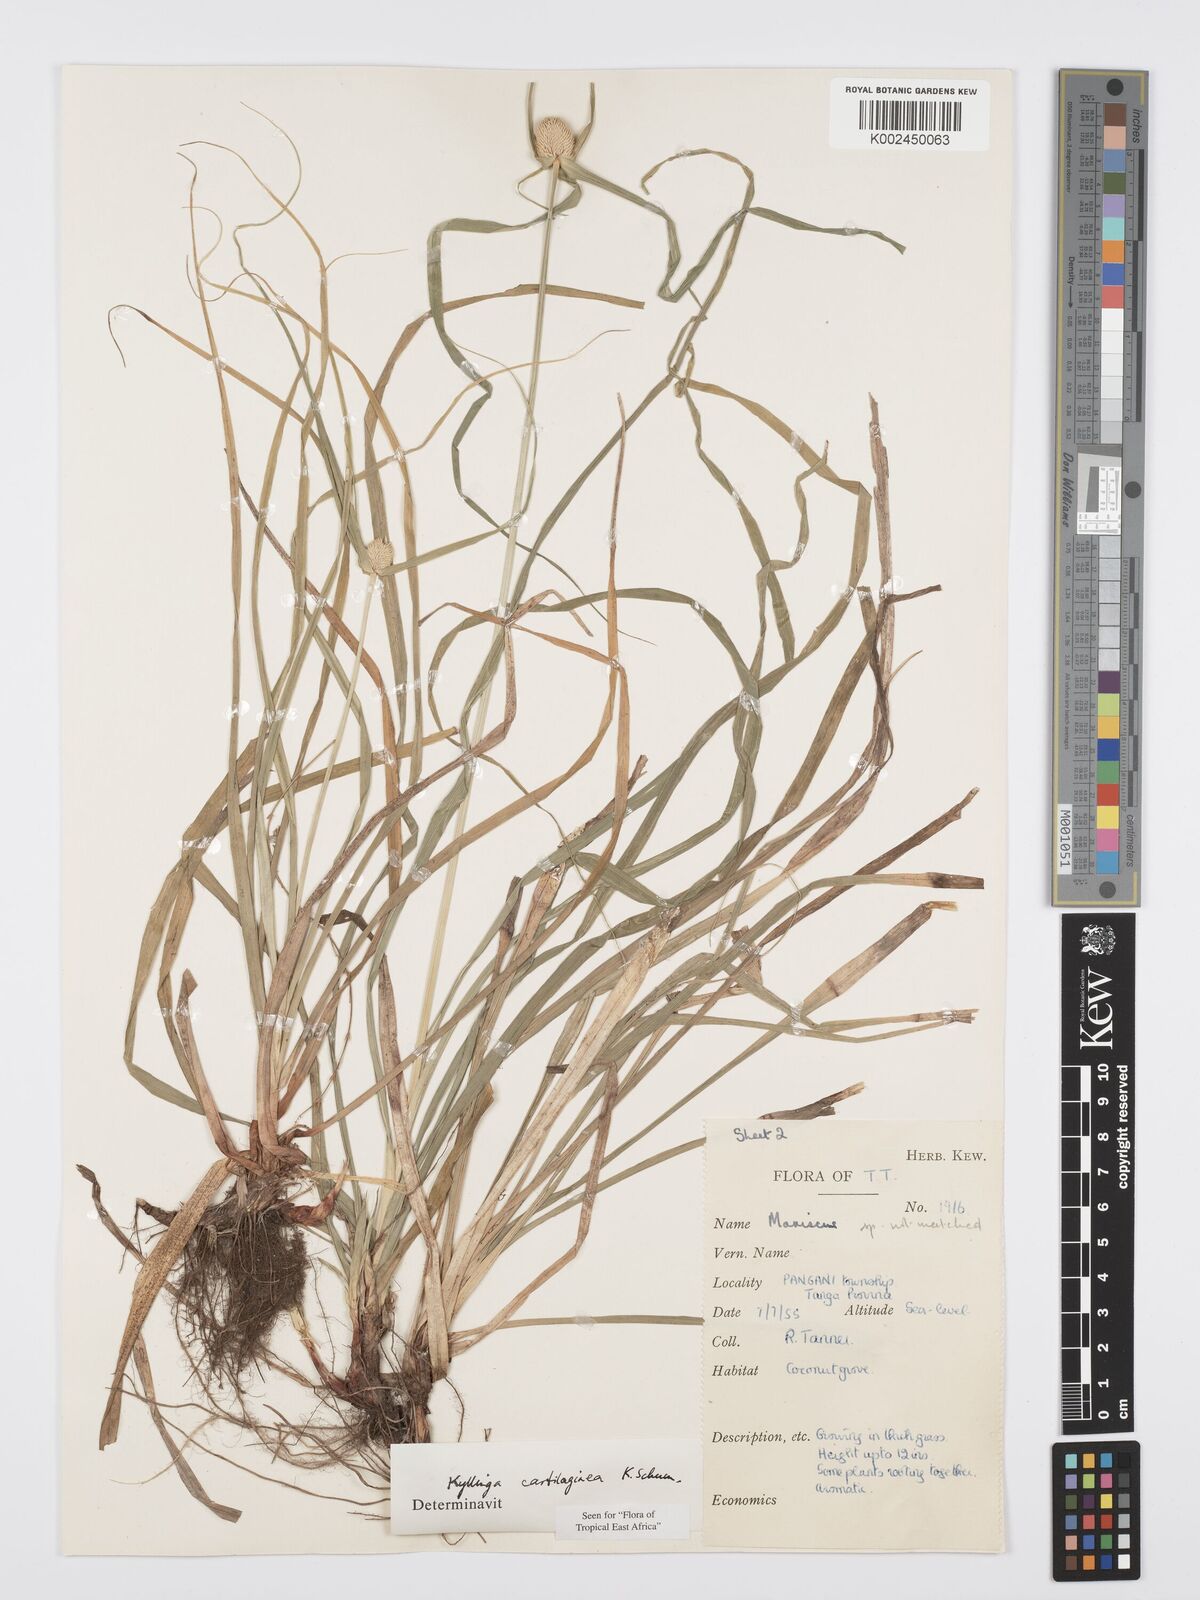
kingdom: Plantae
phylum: Tracheophyta
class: Liliopsida
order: Poales
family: Cyperaceae
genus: Cyperus
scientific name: Cyperus cartilagineus
